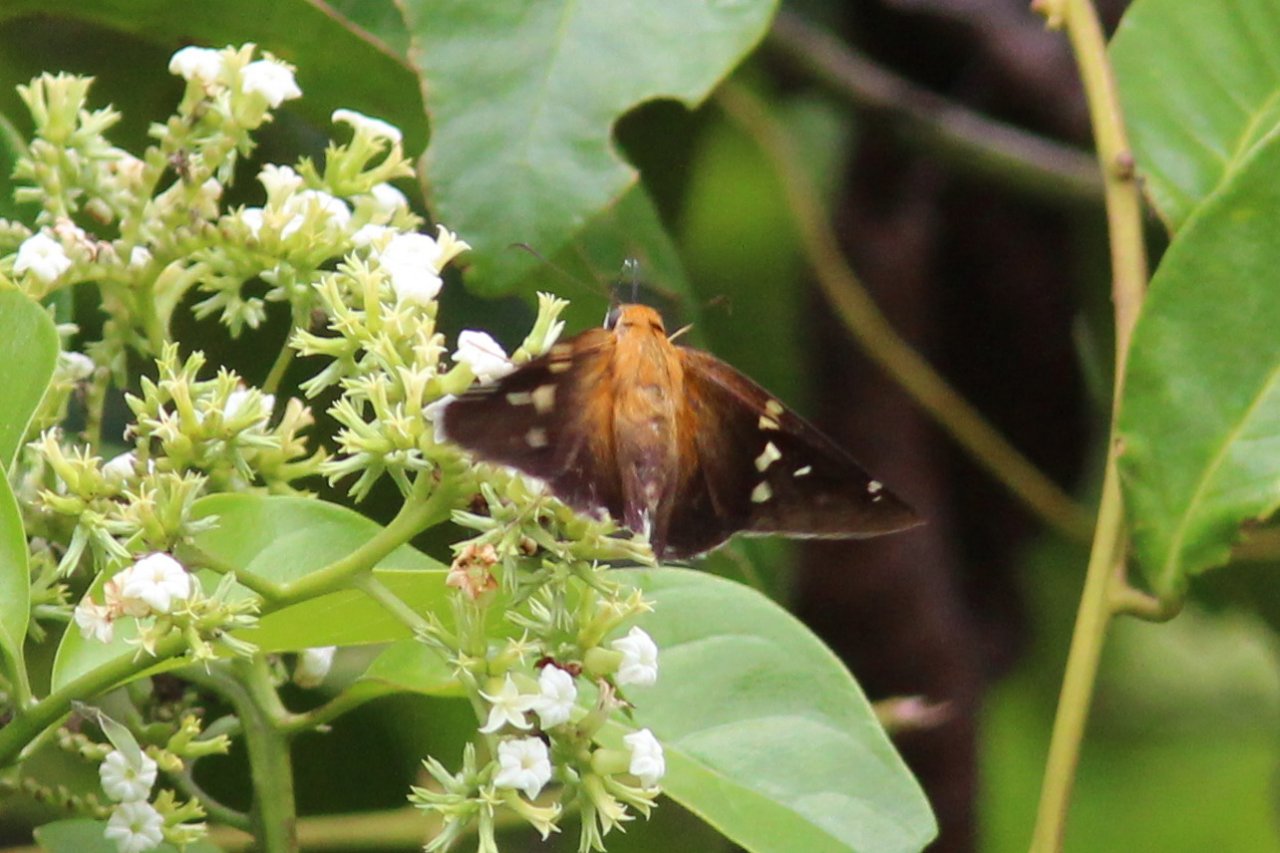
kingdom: Animalia
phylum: Arthropoda
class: Insecta
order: Lepidoptera
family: Hesperiidae
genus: Epargyreus
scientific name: Epargyreus clavicornis
